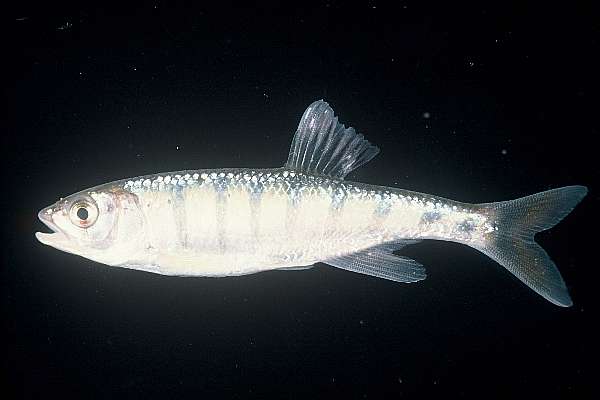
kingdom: Animalia
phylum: Chordata
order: Cypriniformes
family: Cyprinidae
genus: Opsaridium
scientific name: Opsaridium peringueyi
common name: Southern barred minnow
